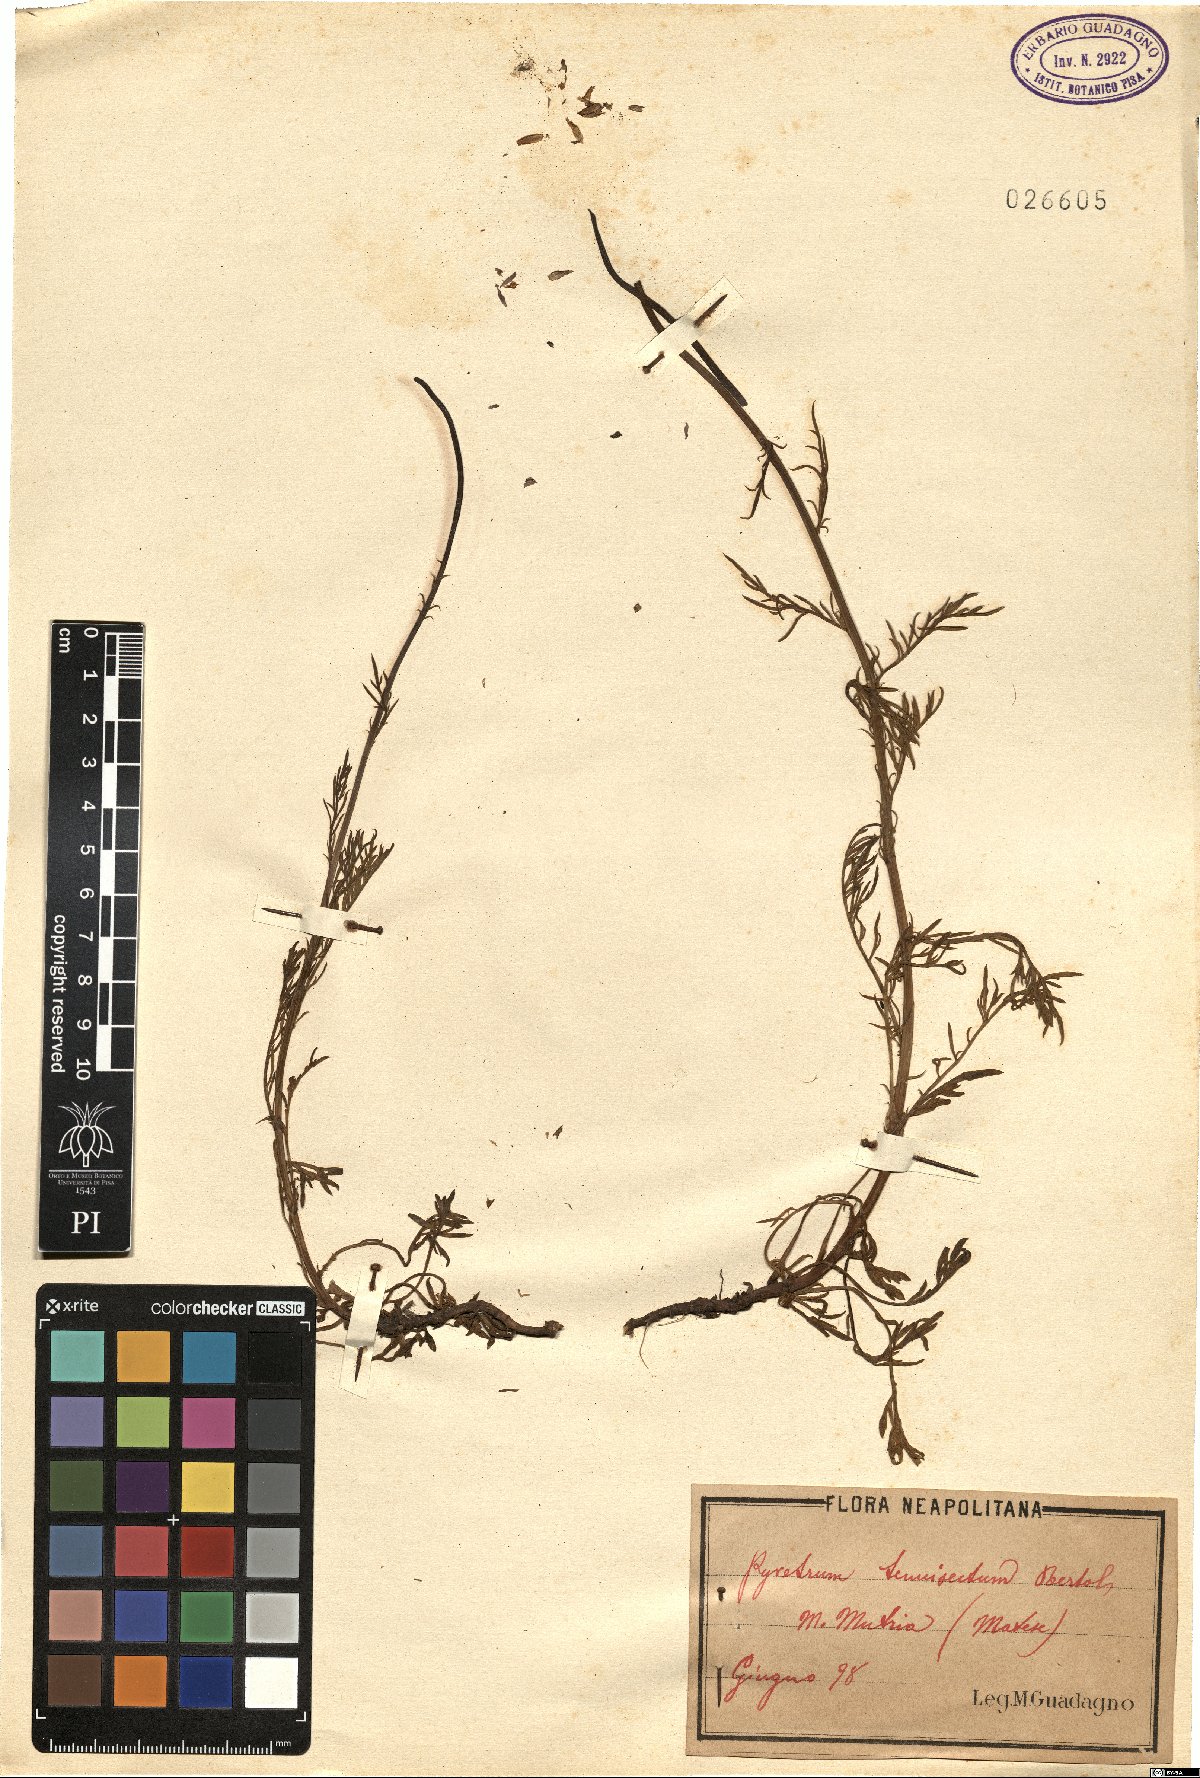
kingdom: Plantae
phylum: Tracheophyta
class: Magnoliopsida
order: Asterales
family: Asteraceae
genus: Tanacetum
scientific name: Tanacetum tenuisectum
